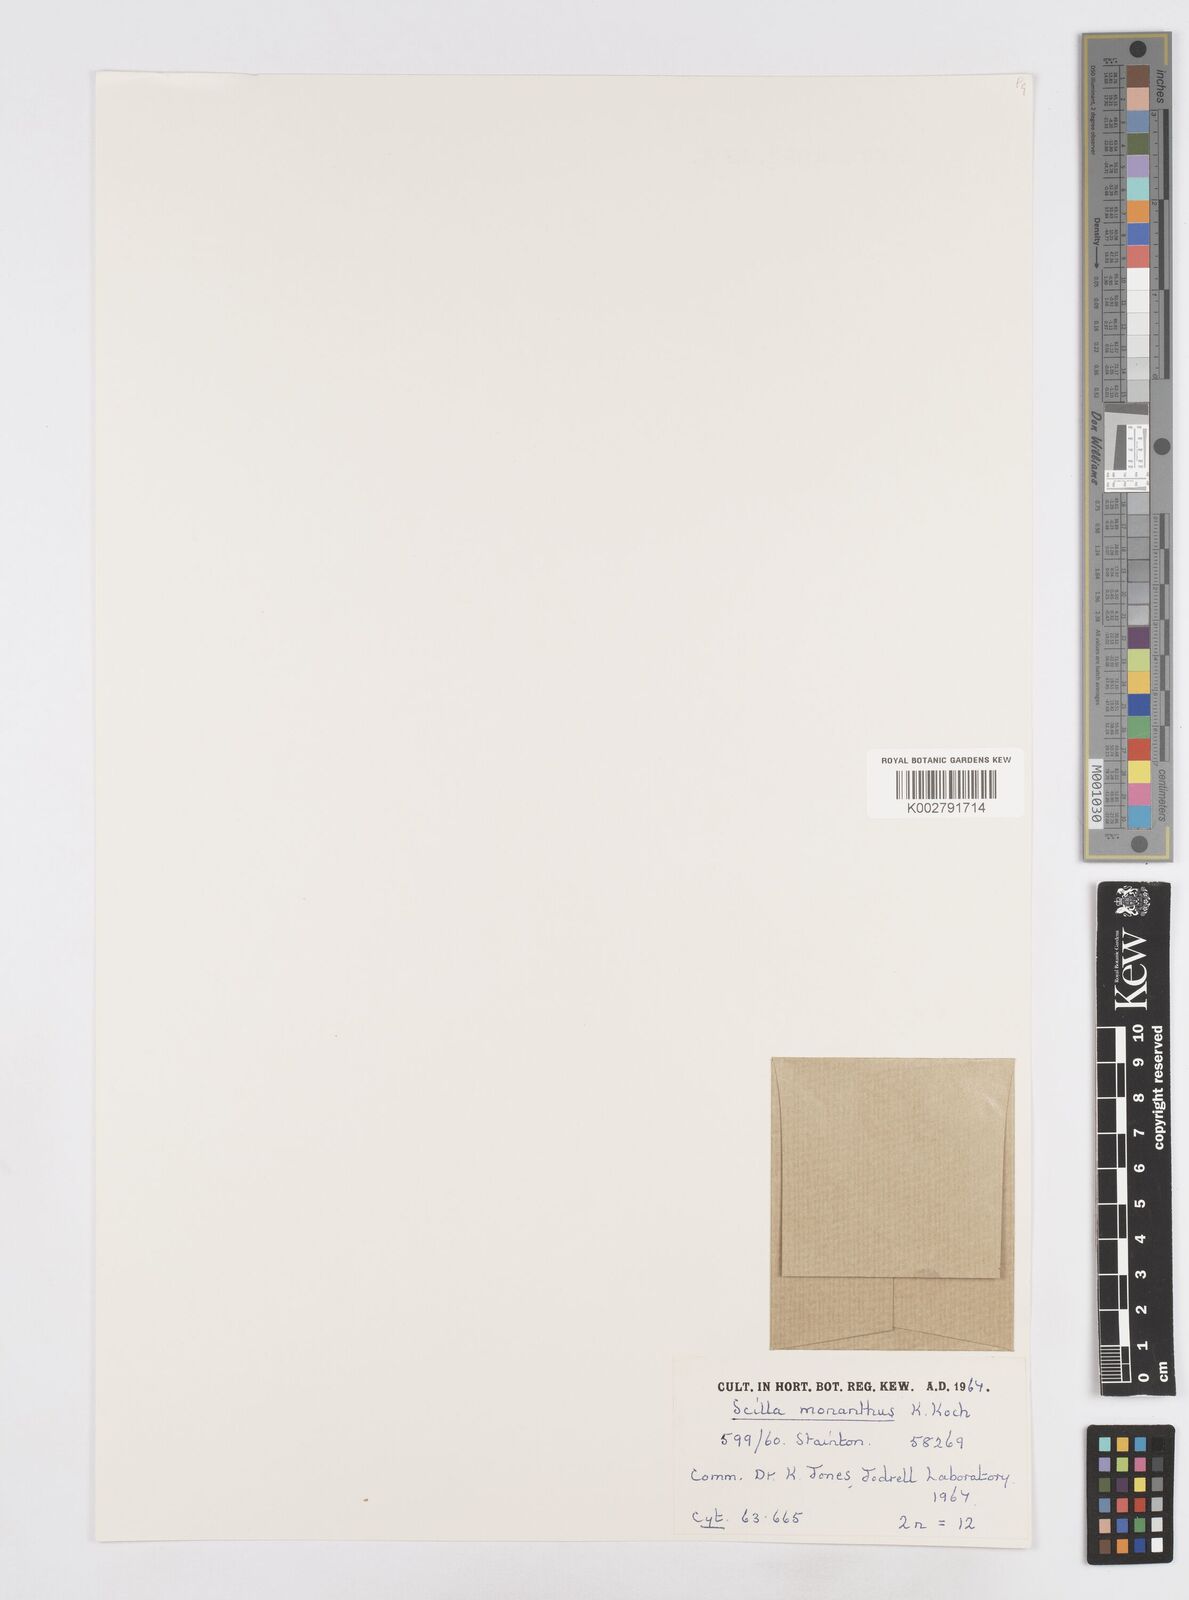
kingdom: Plantae
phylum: Tracheophyta
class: Liliopsida
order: Asparagales
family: Asparagaceae
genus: Scilla
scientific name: Scilla monanthos
